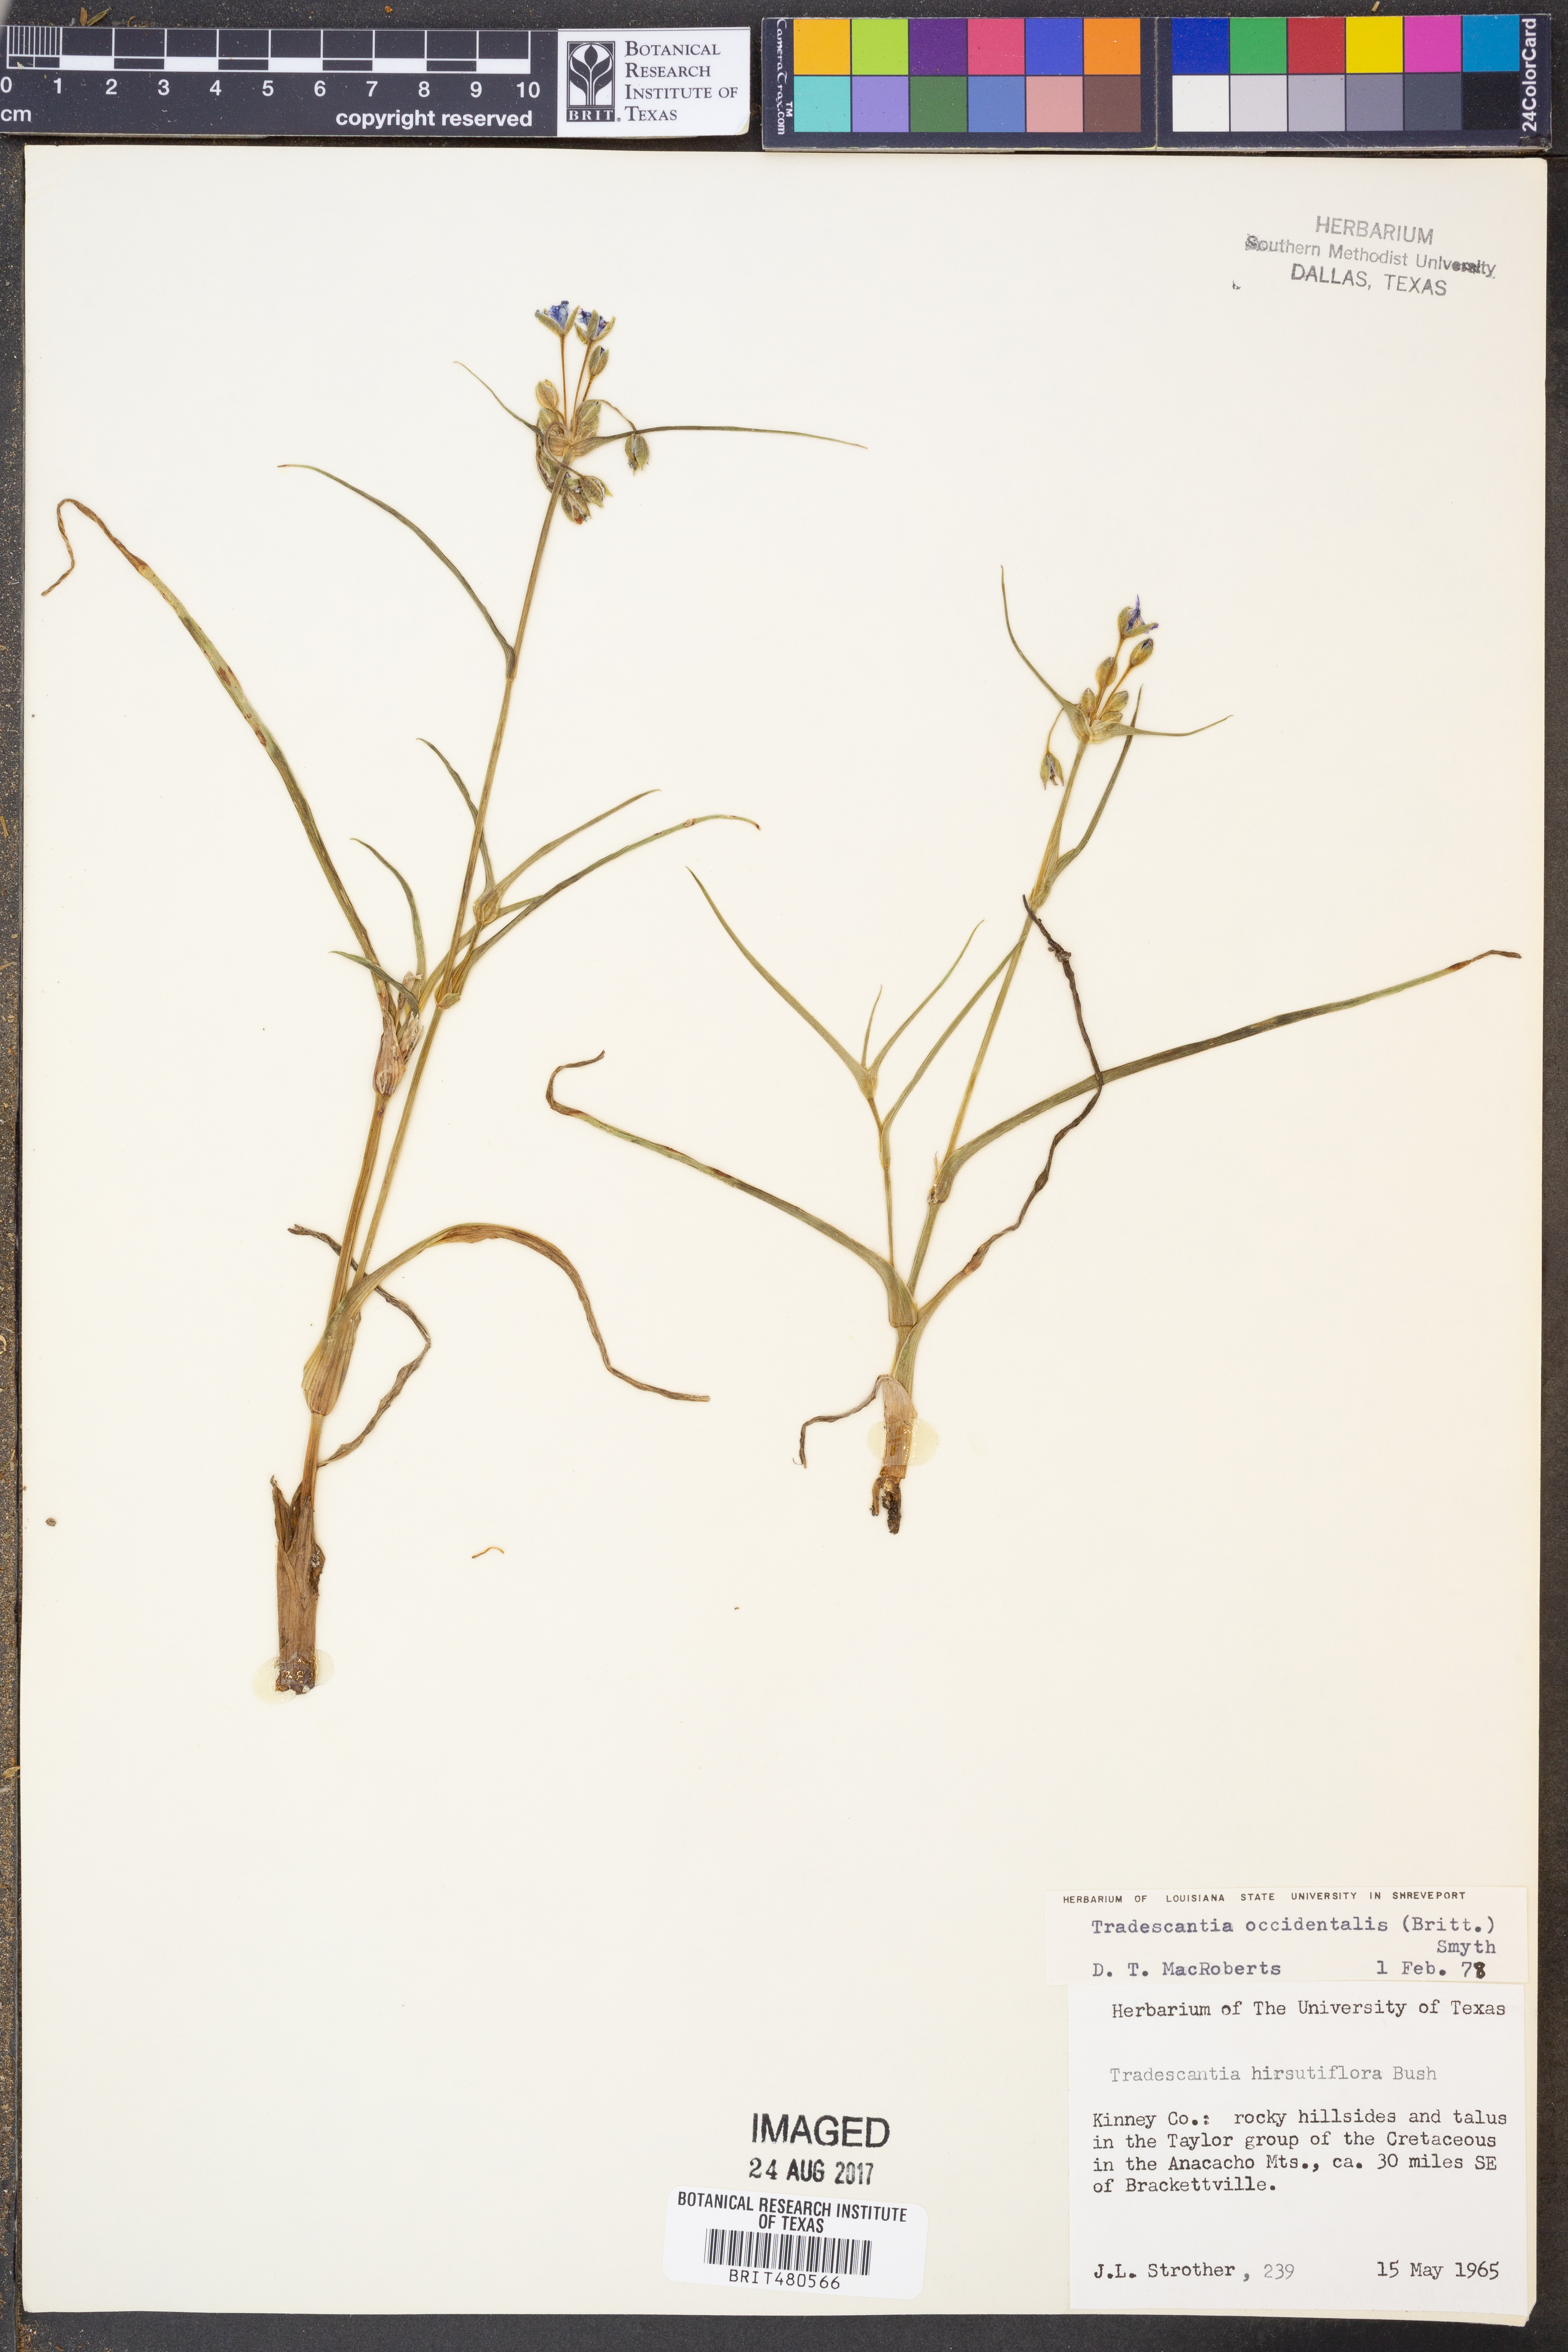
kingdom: Plantae
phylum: Tracheophyta
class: Liliopsida
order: Commelinales
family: Commelinaceae
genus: Tradescantia
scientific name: Tradescantia occidentalis
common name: Prairie spiderwort
